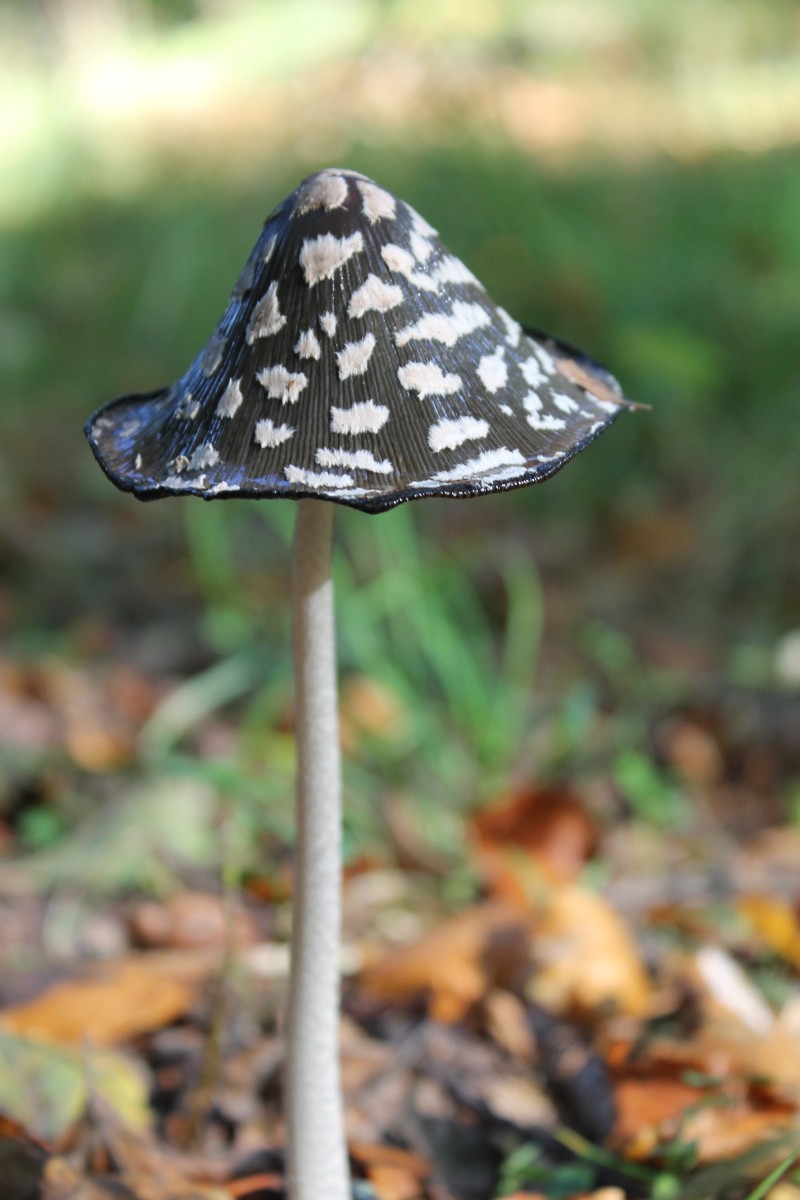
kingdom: Fungi
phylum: Basidiomycota
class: Agaricomycetes
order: Agaricales
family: Psathyrellaceae
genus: Coprinopsis
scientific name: Coprinopsis picacea
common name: skade-blækhat
